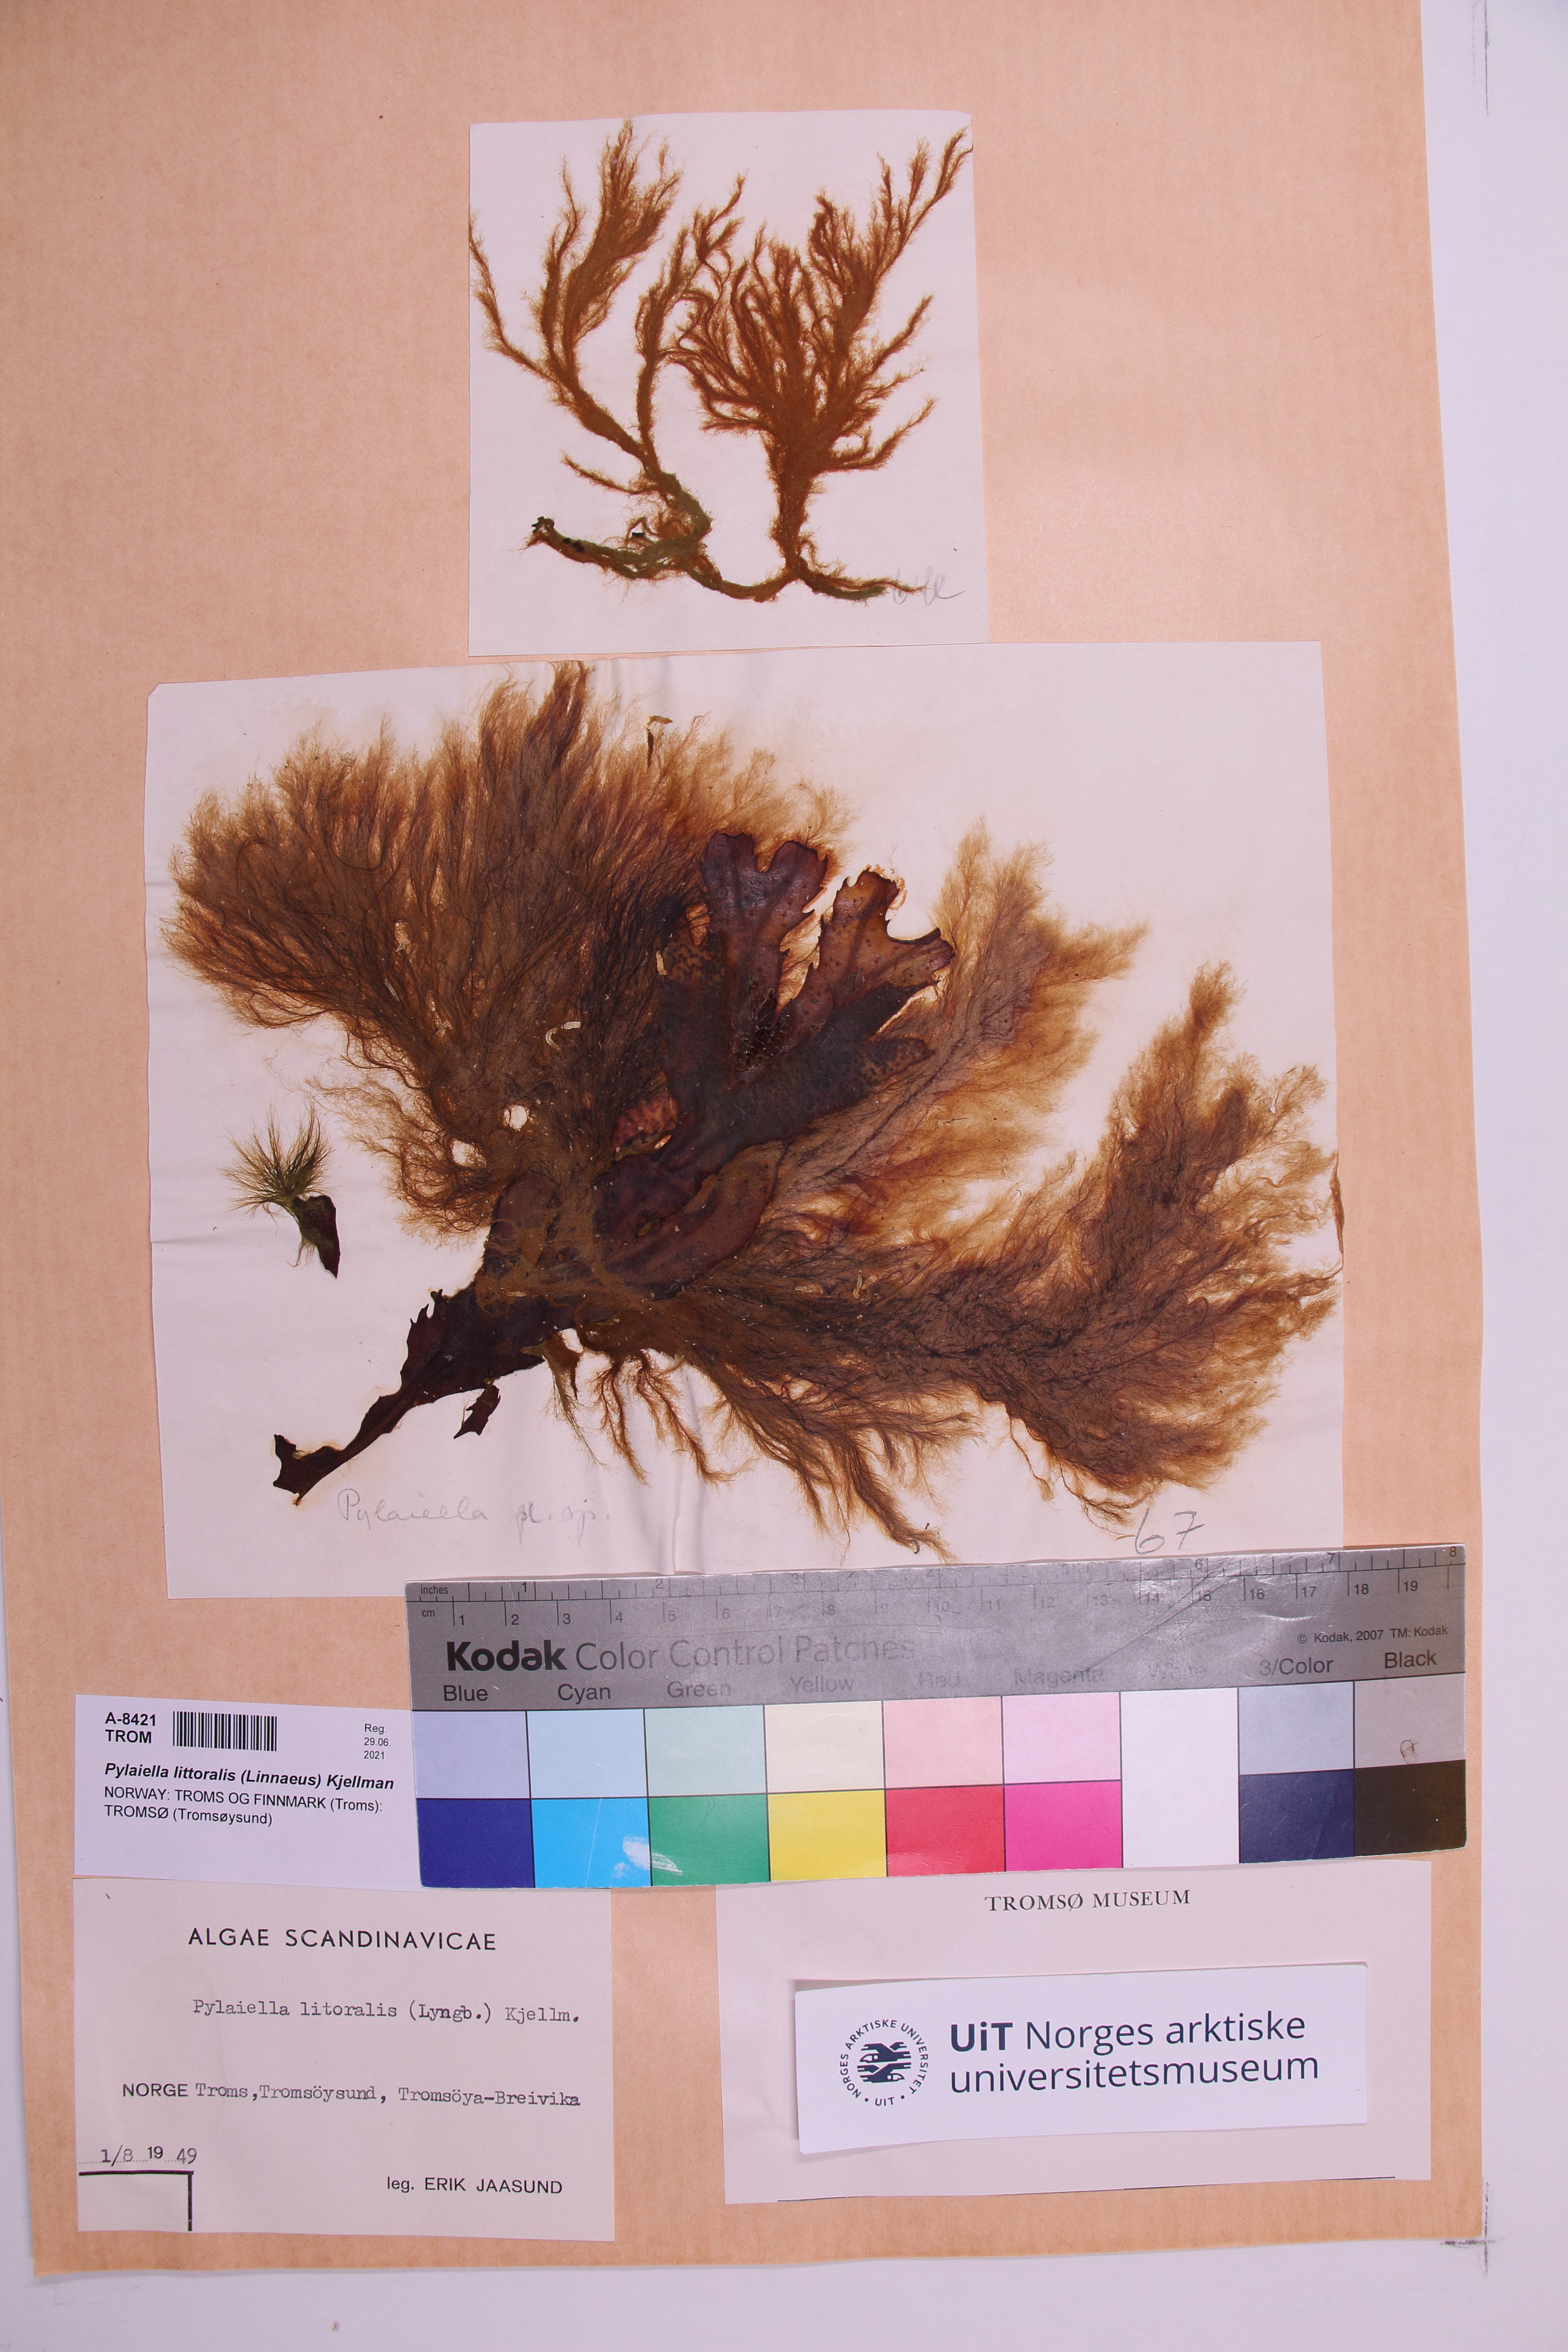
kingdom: Chromista
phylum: Ochrophyta
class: Phaeophyceae
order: Ectocarpales
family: Acinetosporaceae
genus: Pylaiella
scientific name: Pylaiella littoralis
